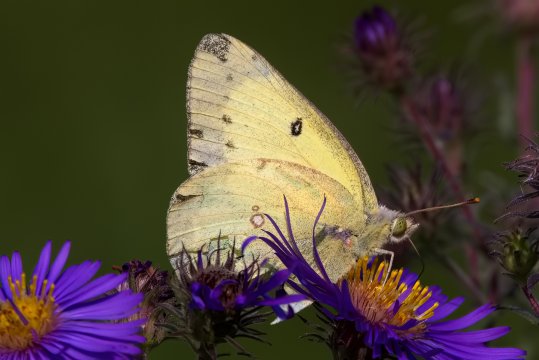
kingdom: Animalia
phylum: Arthropoda
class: Insecta
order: Lepidoptera
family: Pieridae
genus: Colias
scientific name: Colias philodice
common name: Clouded Sulphur
